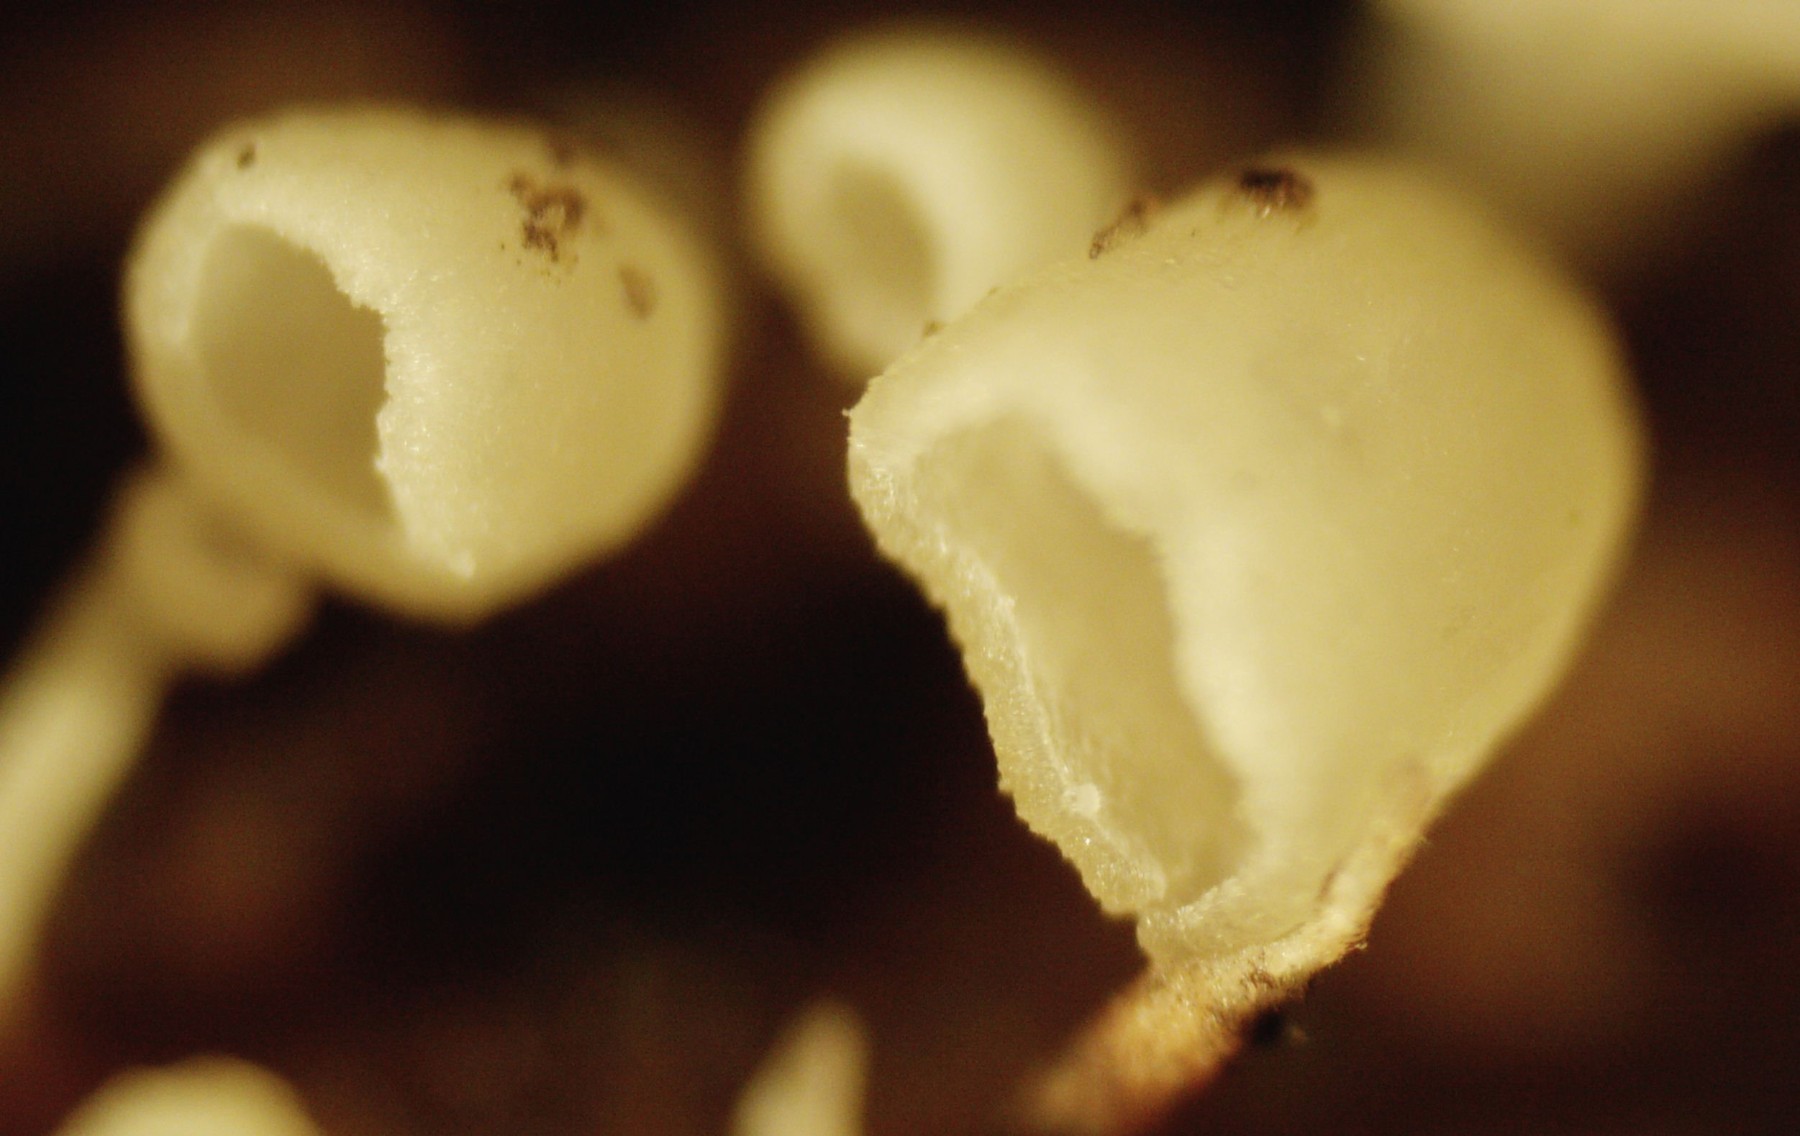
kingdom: Fungi
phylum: Basidiomycota
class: Agaricomycetes
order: Agaricales
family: Marasmiaceae
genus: Calyptella
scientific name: Calyptella capula
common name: hvidlig nældehue
